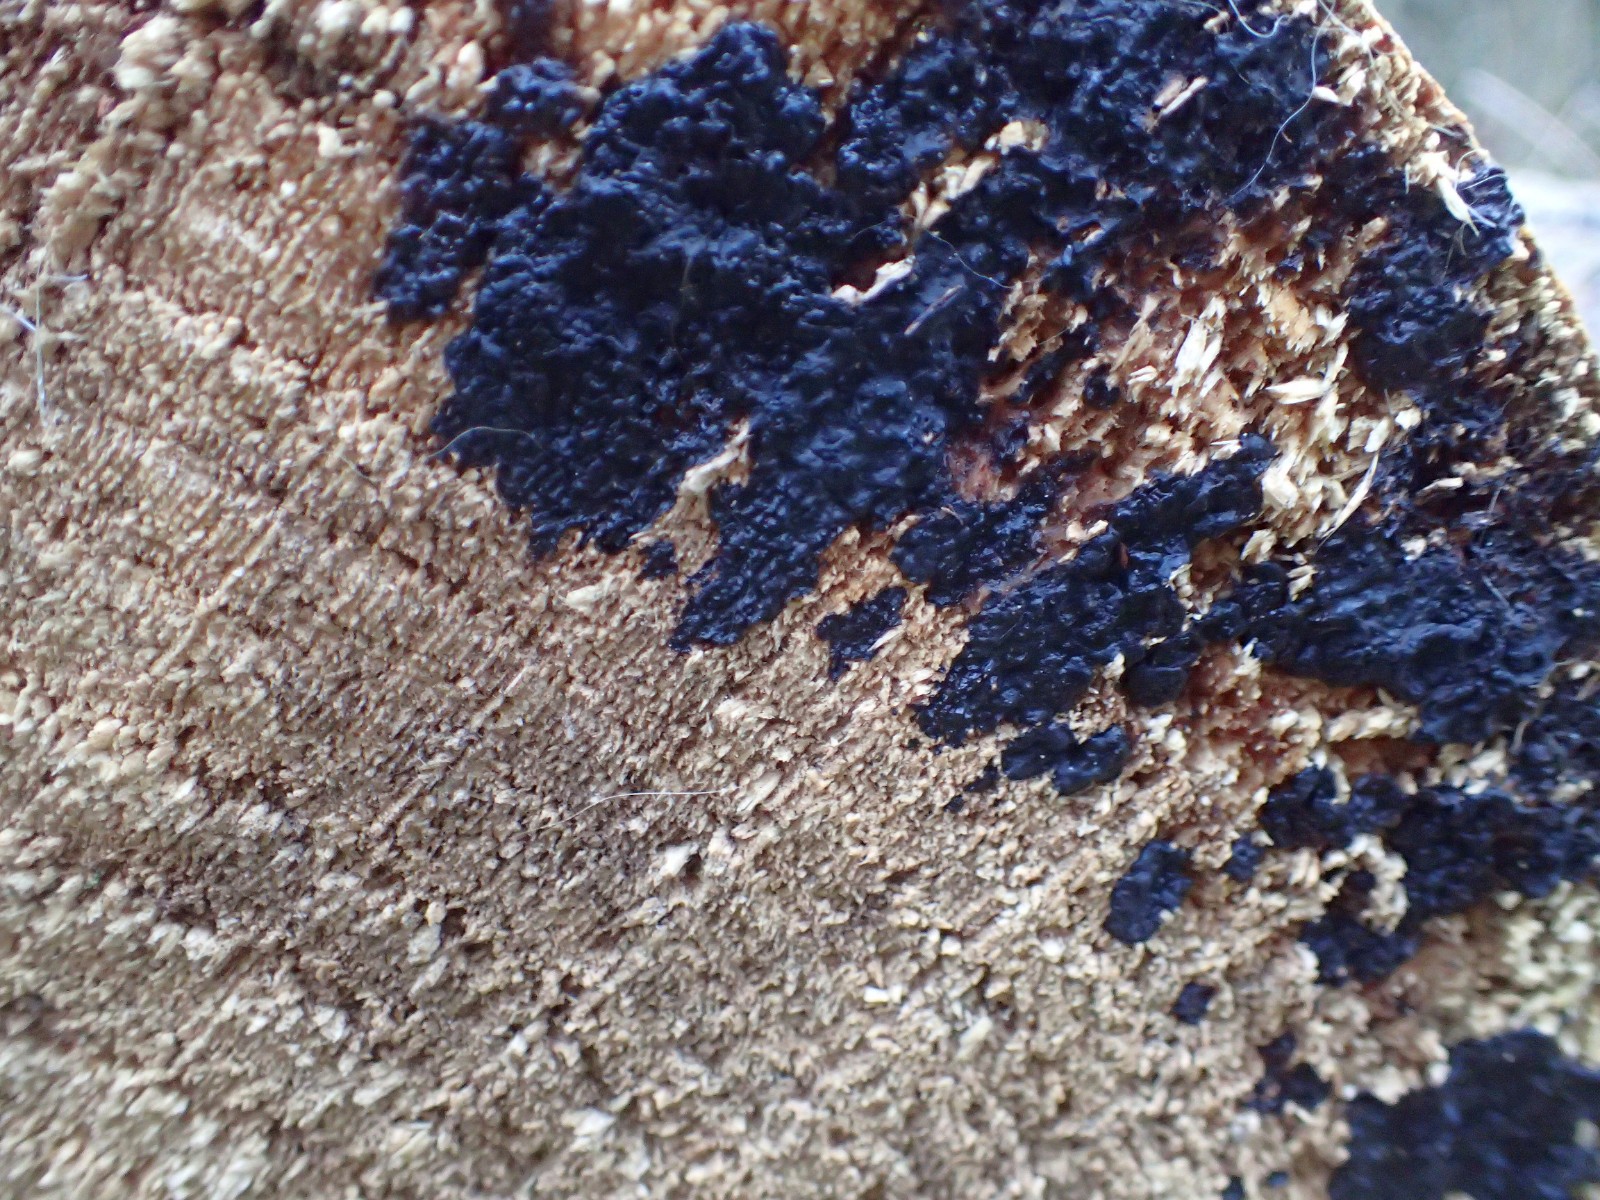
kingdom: Fungi
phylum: Basidiomycota
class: Agaricomycetes
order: Auriculariales
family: Auriculariaceae
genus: Exidia
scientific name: Exidia pithya
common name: gran-bævretop
